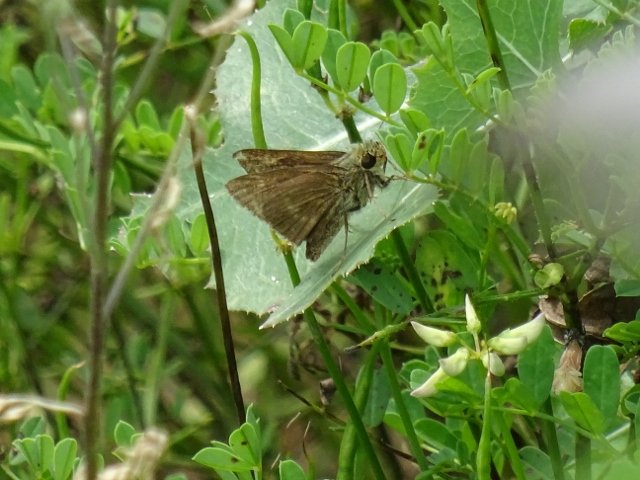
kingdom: Animalia
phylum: Arthropoda
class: Insecta
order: Lepidoptera
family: Hesperiidae
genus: Polites
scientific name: Polites egeremet
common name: Northern Broken-Dash
